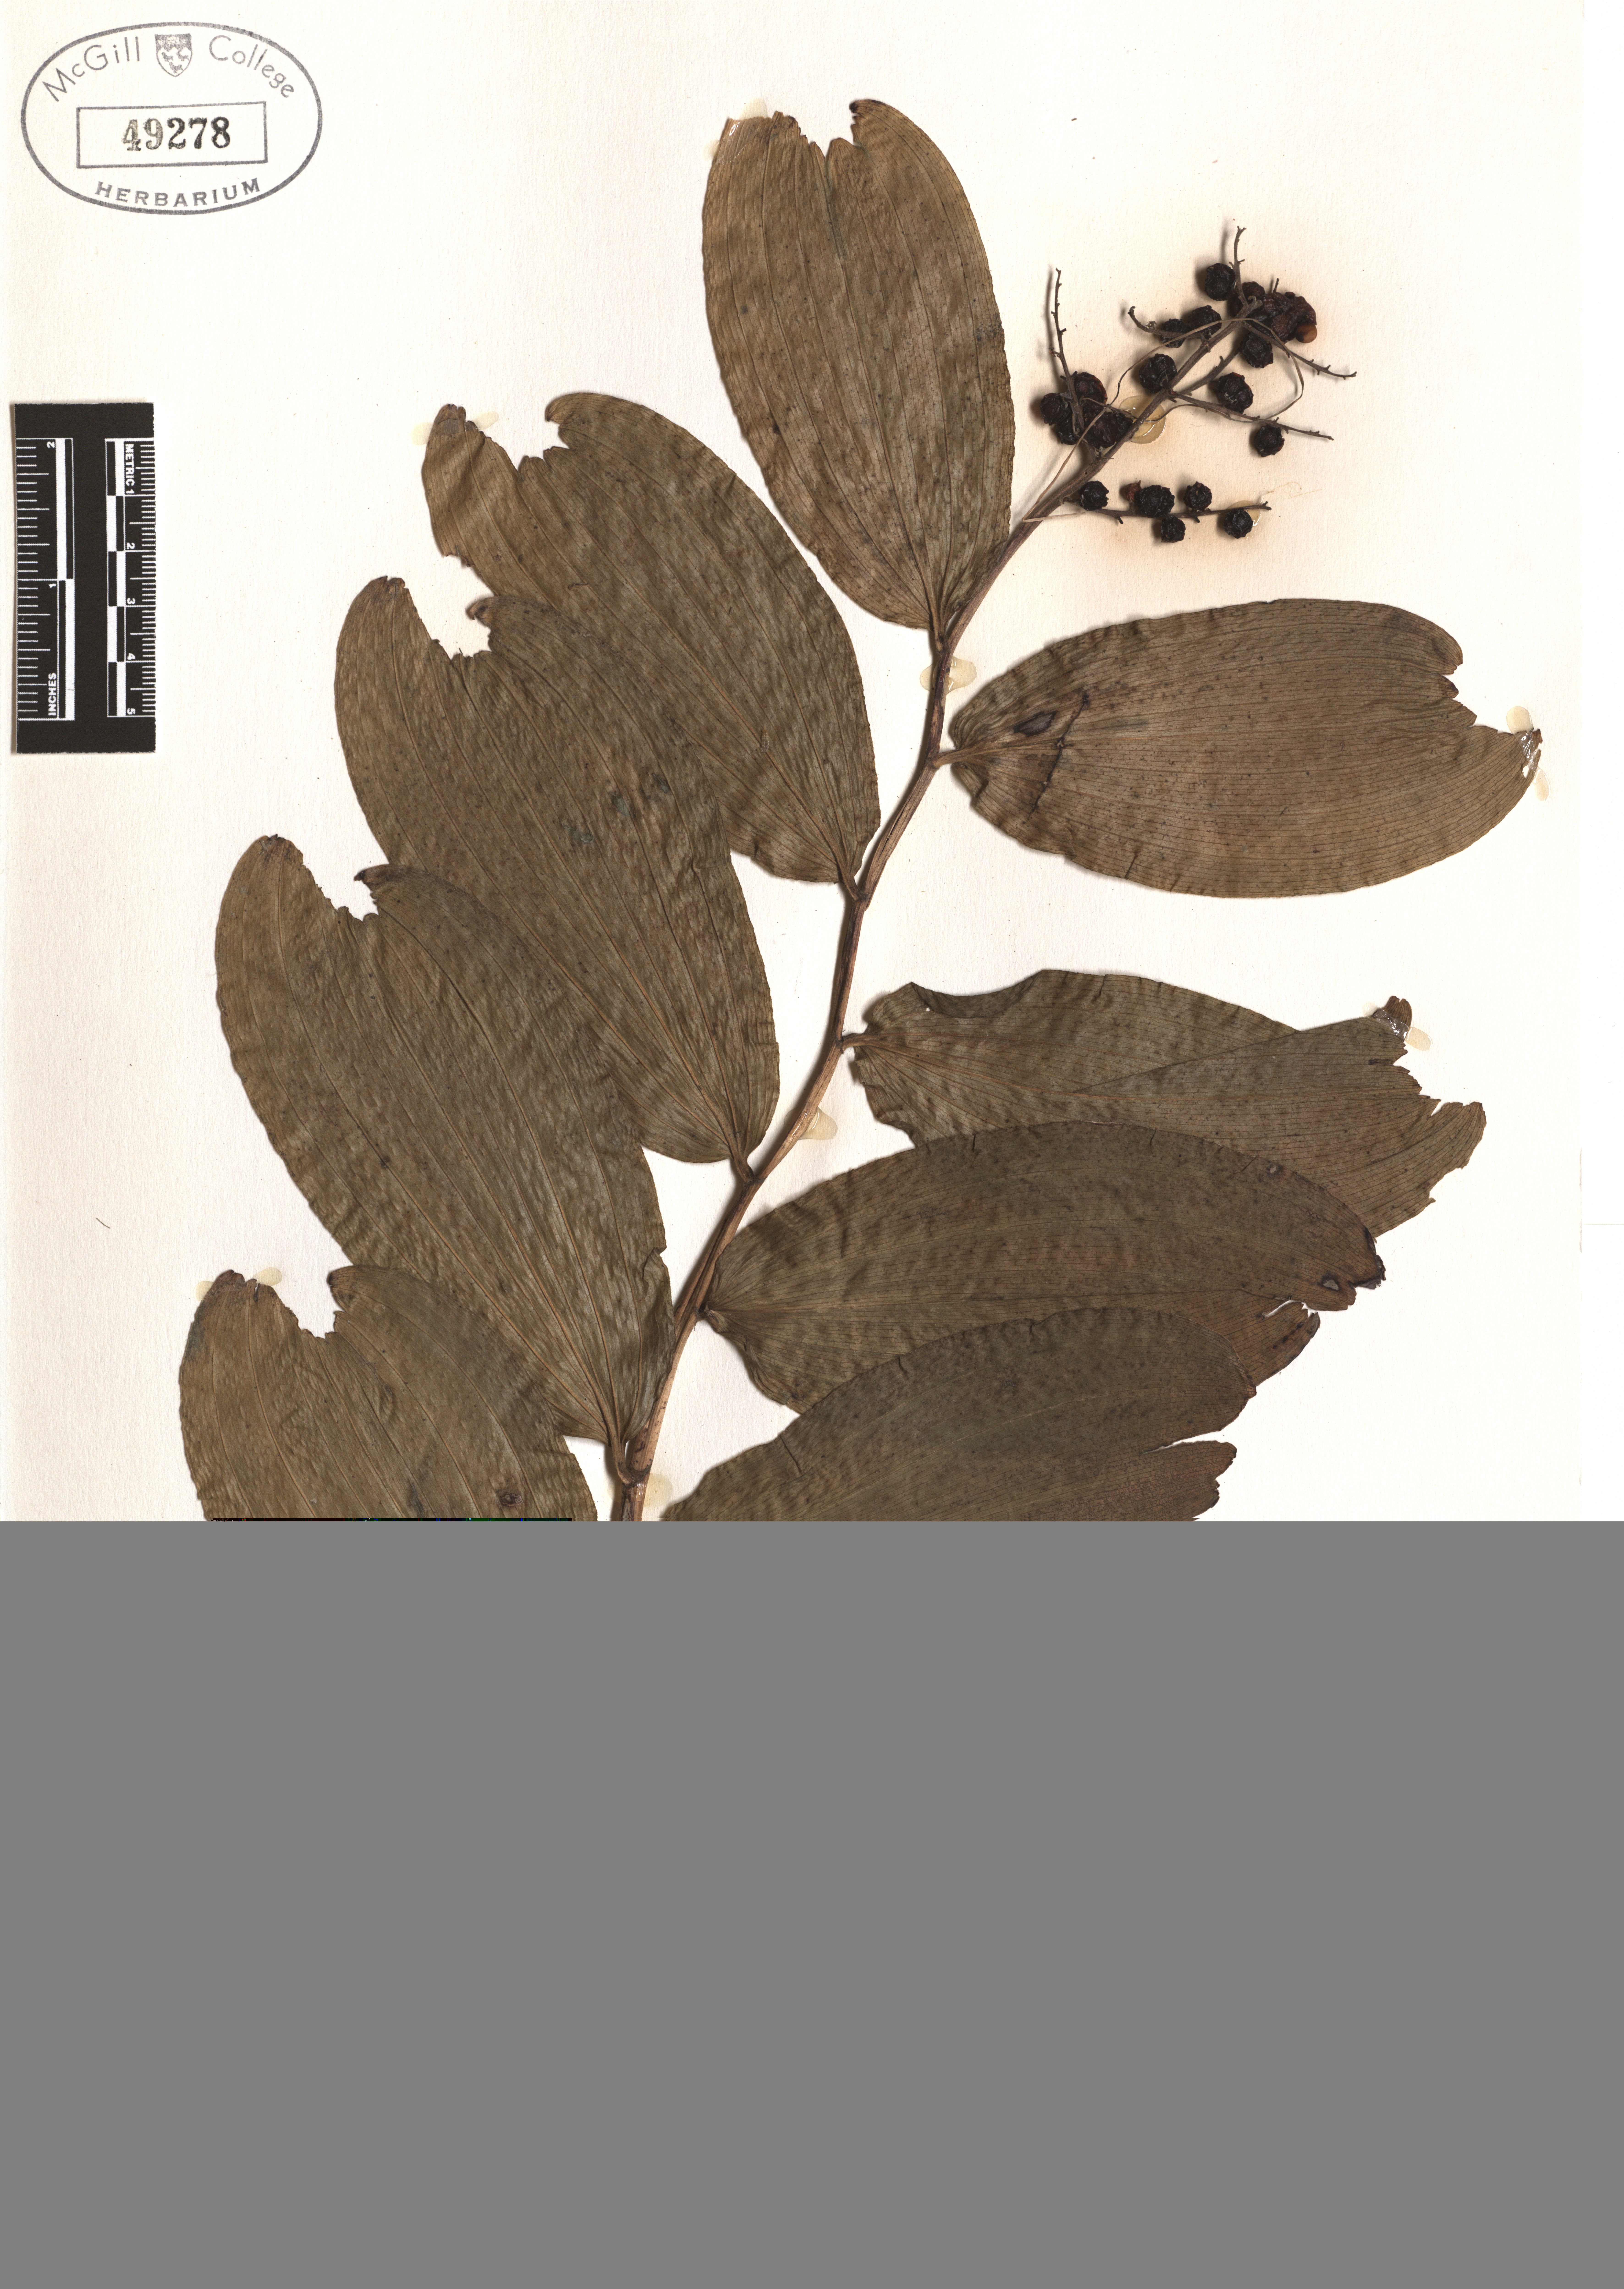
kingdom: Plantae
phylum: Tracheophyta
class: Liliopsida
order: Asparagales
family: Asparagaceae
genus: Maianthemum
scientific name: Maianthemum racemosum
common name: False spikenard
